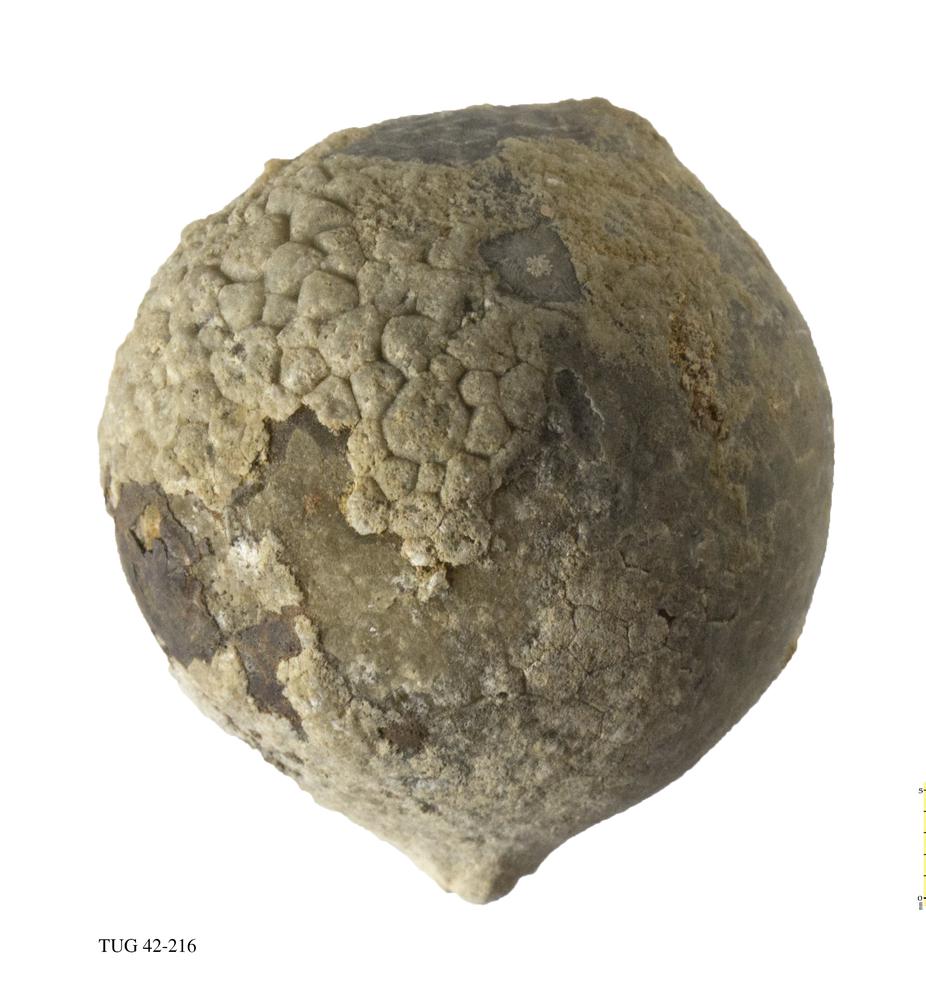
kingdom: Animalia
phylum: Echinodermata
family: Echinosphaeritidae
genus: Echinosphaerites
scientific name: Echinosphaerites Echinus aurantium
